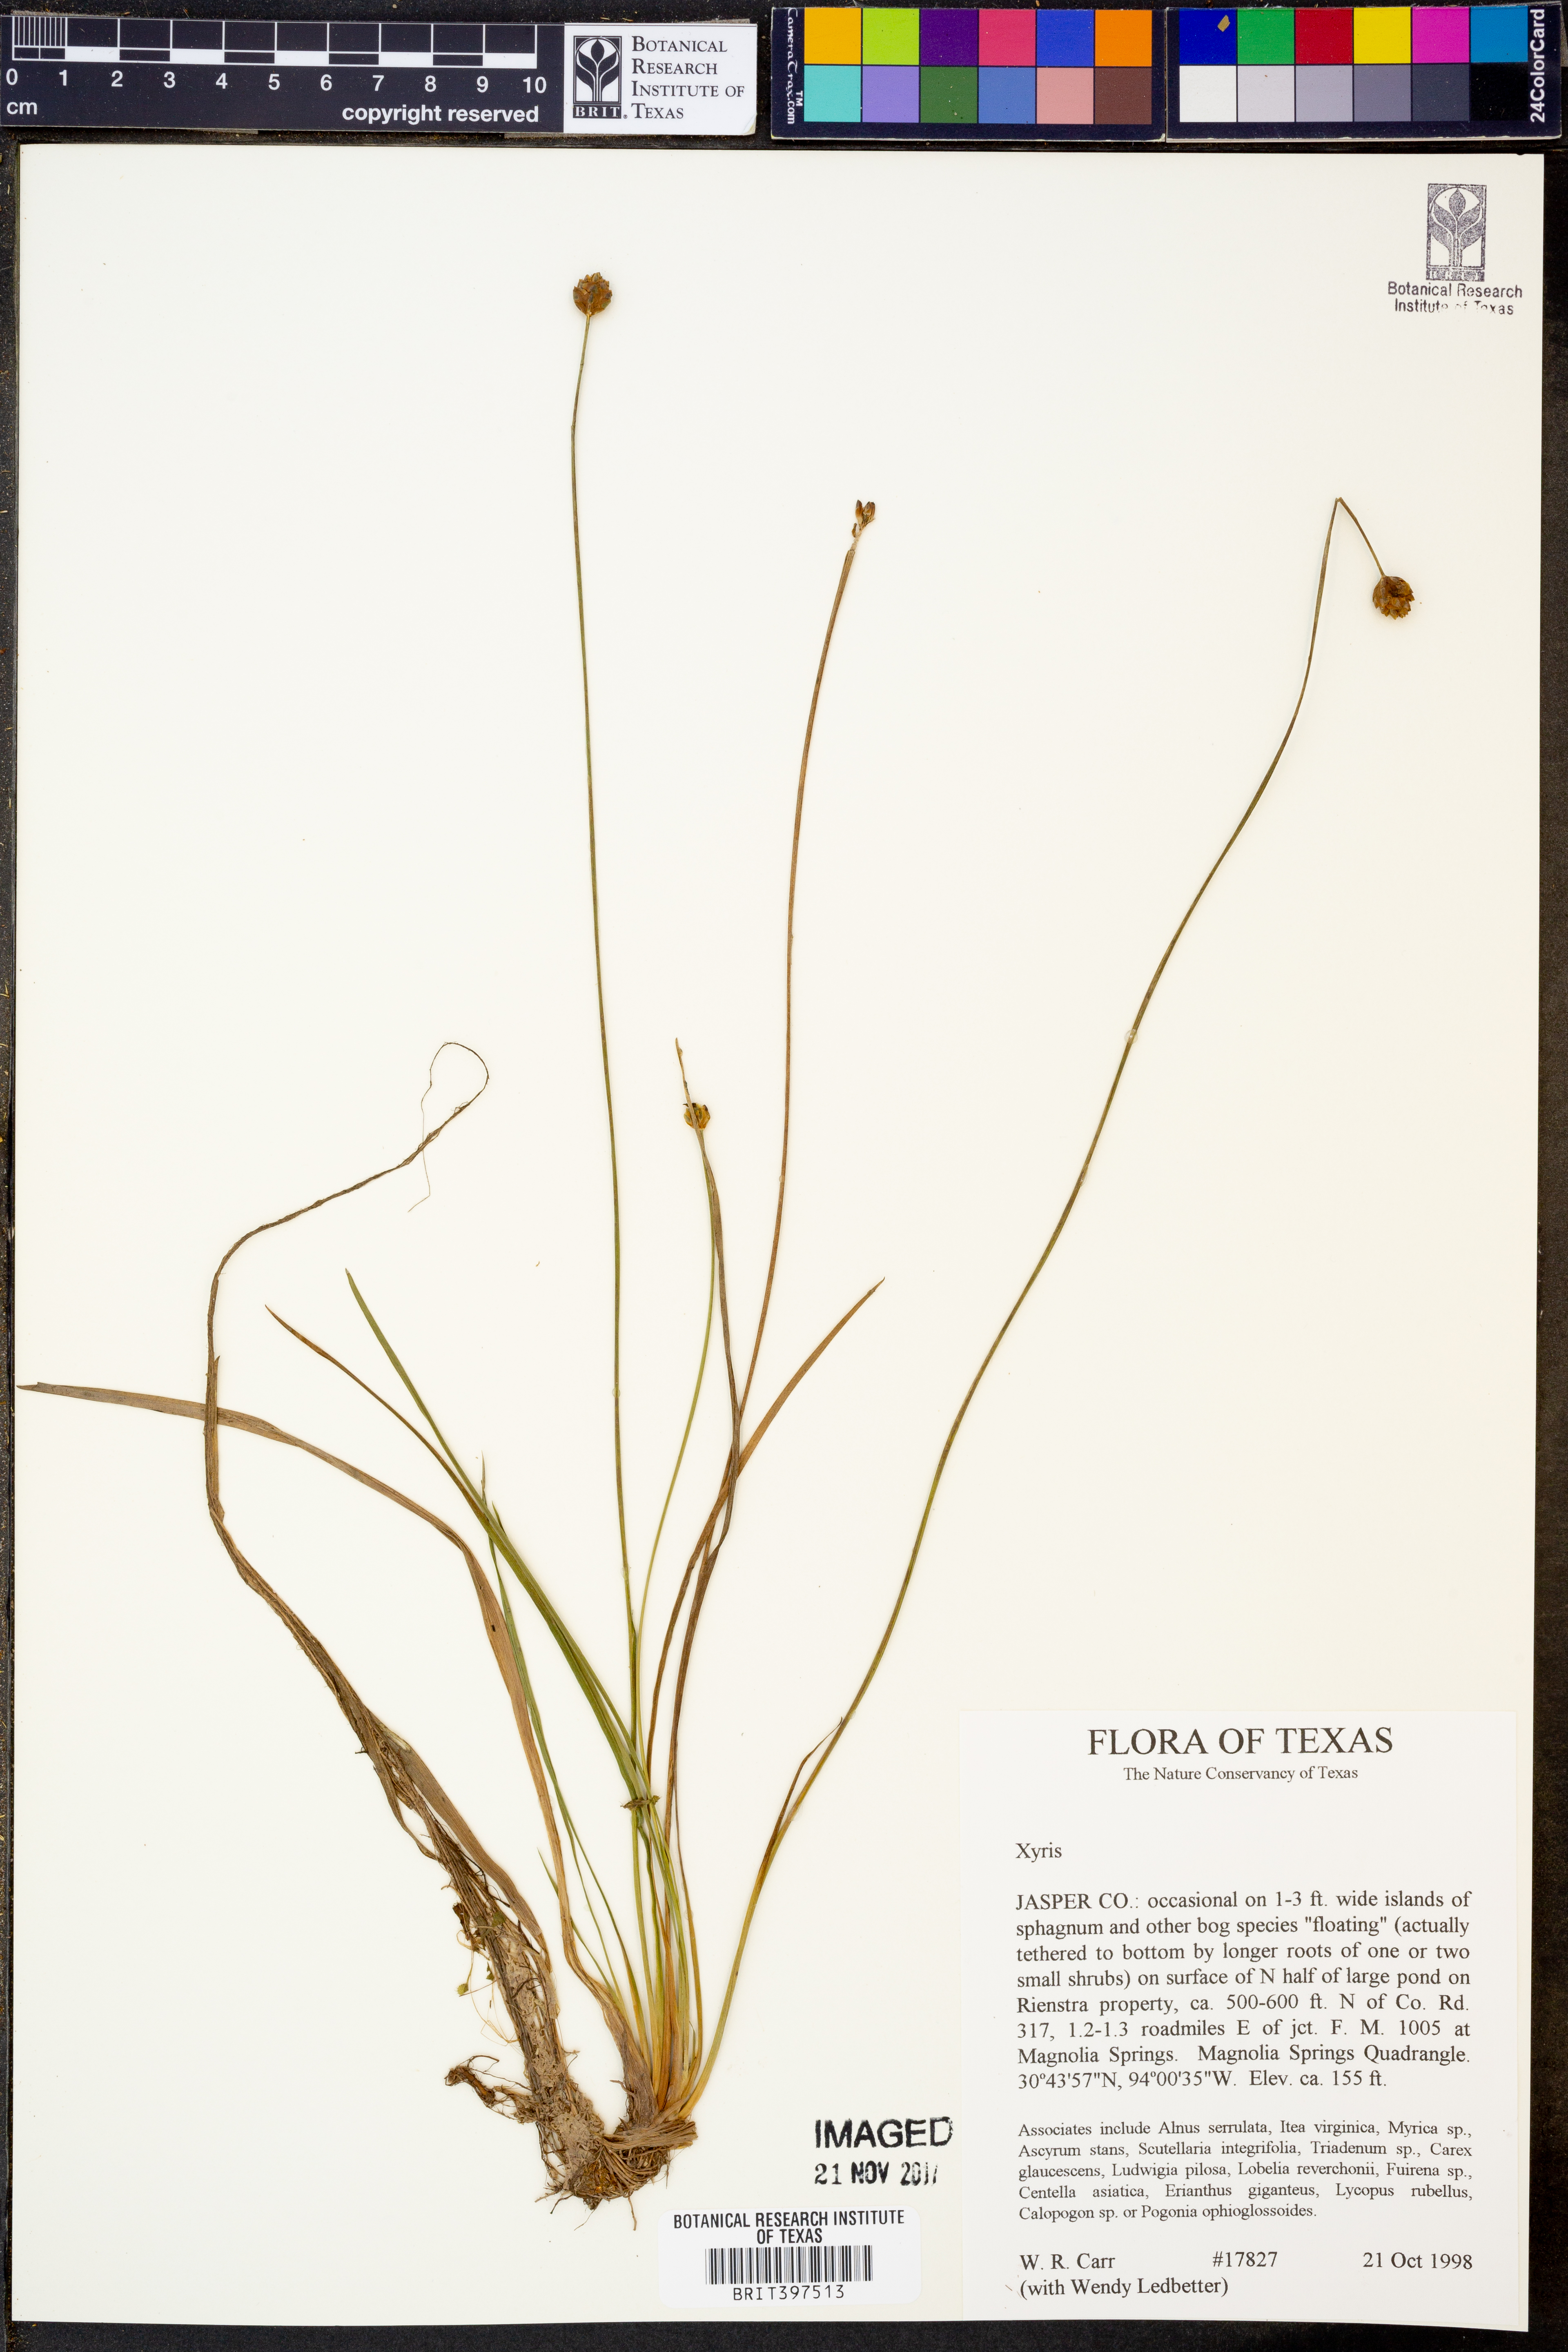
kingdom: Plantae
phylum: Tracheophyta
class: Liliopsida
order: Poales
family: Xyridaceae
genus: Xyris
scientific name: Xyris
